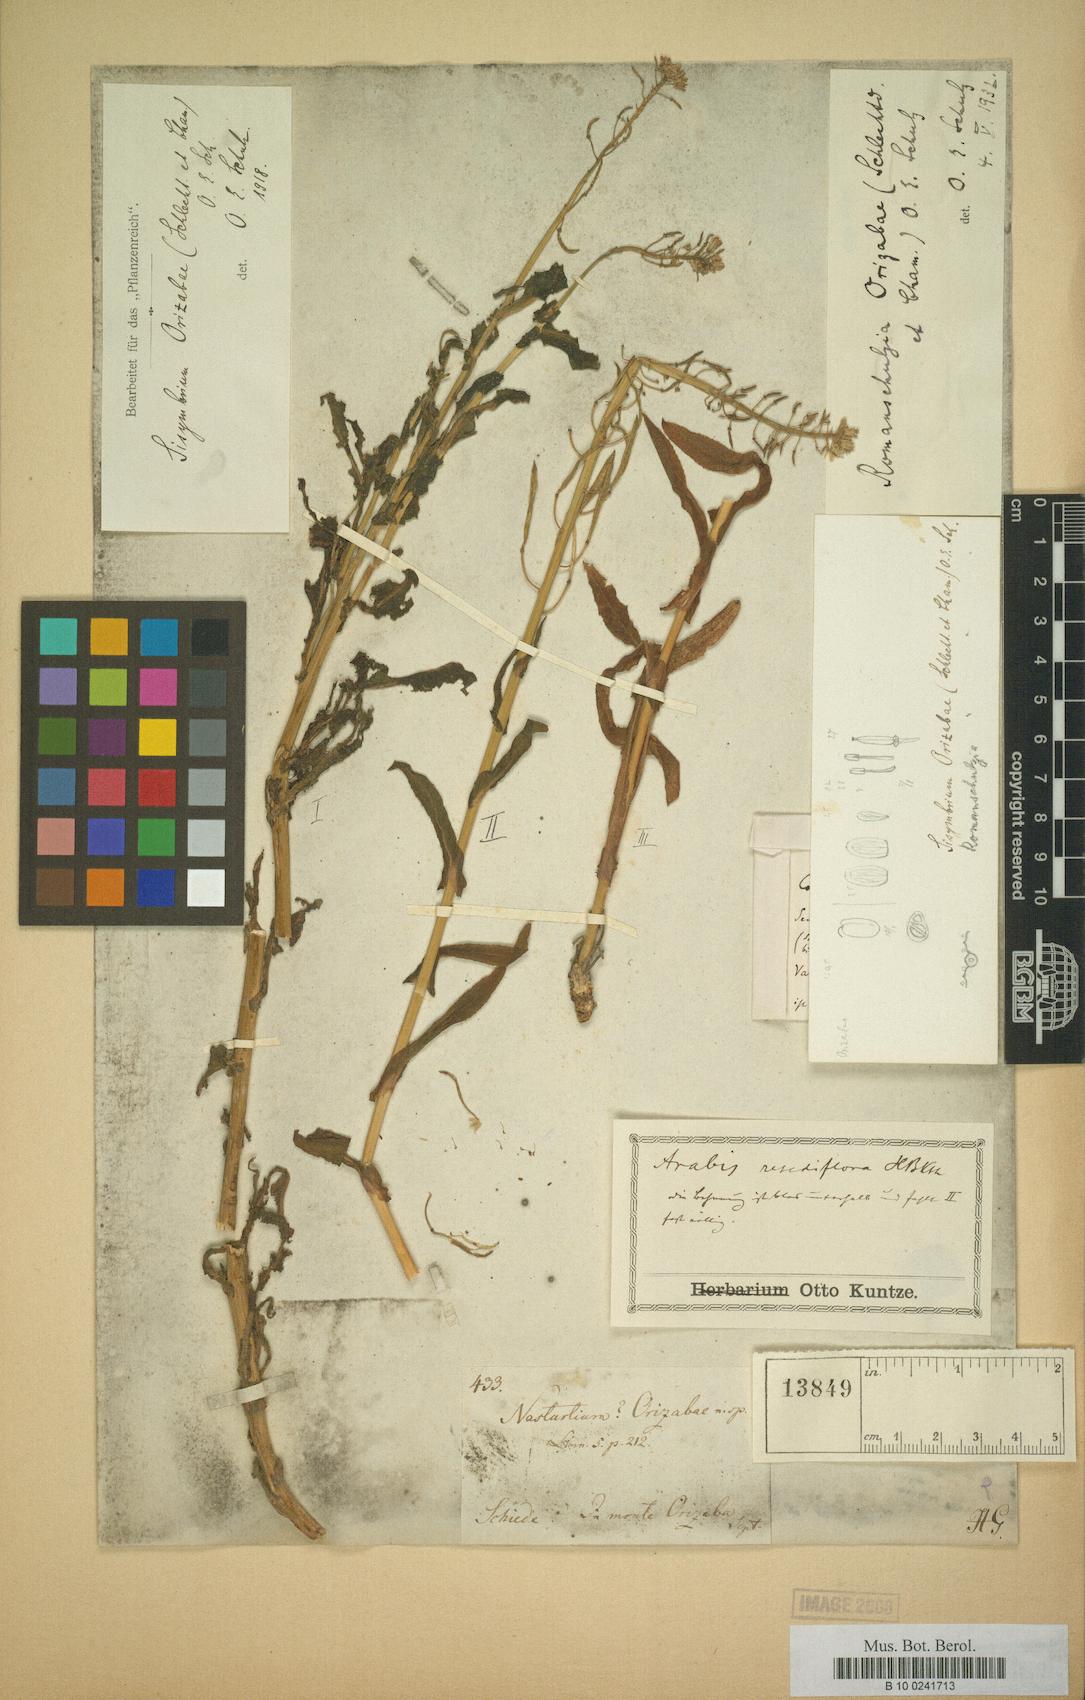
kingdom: Plantae
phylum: Tracheophyta
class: Magnoliopsida
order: Brassicales
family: Brassicaceae
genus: Romanschulzia
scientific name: Romanschulzia orizabae
